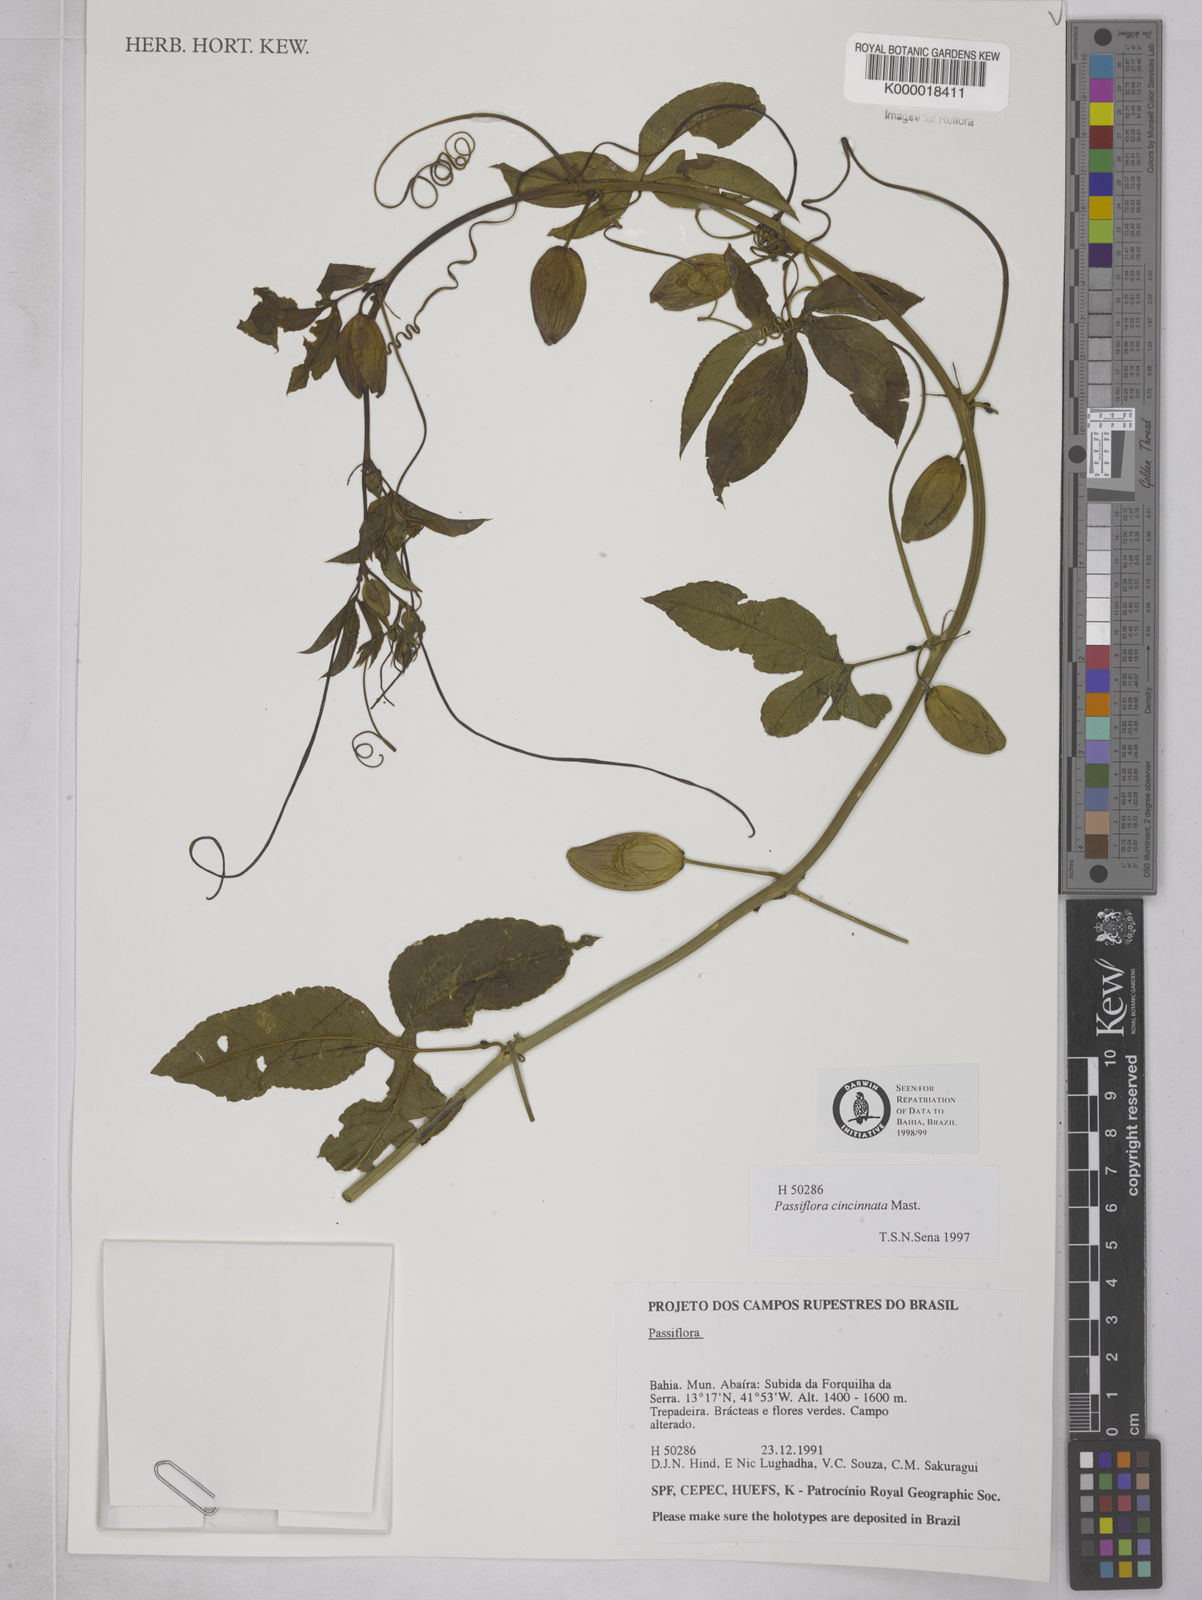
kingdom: Plantae
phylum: Tracheophyta
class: Magnoliopsida
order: Malpighiales
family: Passifloraceae
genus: Passiflora
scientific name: Passiflora cincinnata
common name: Crato passionvine
